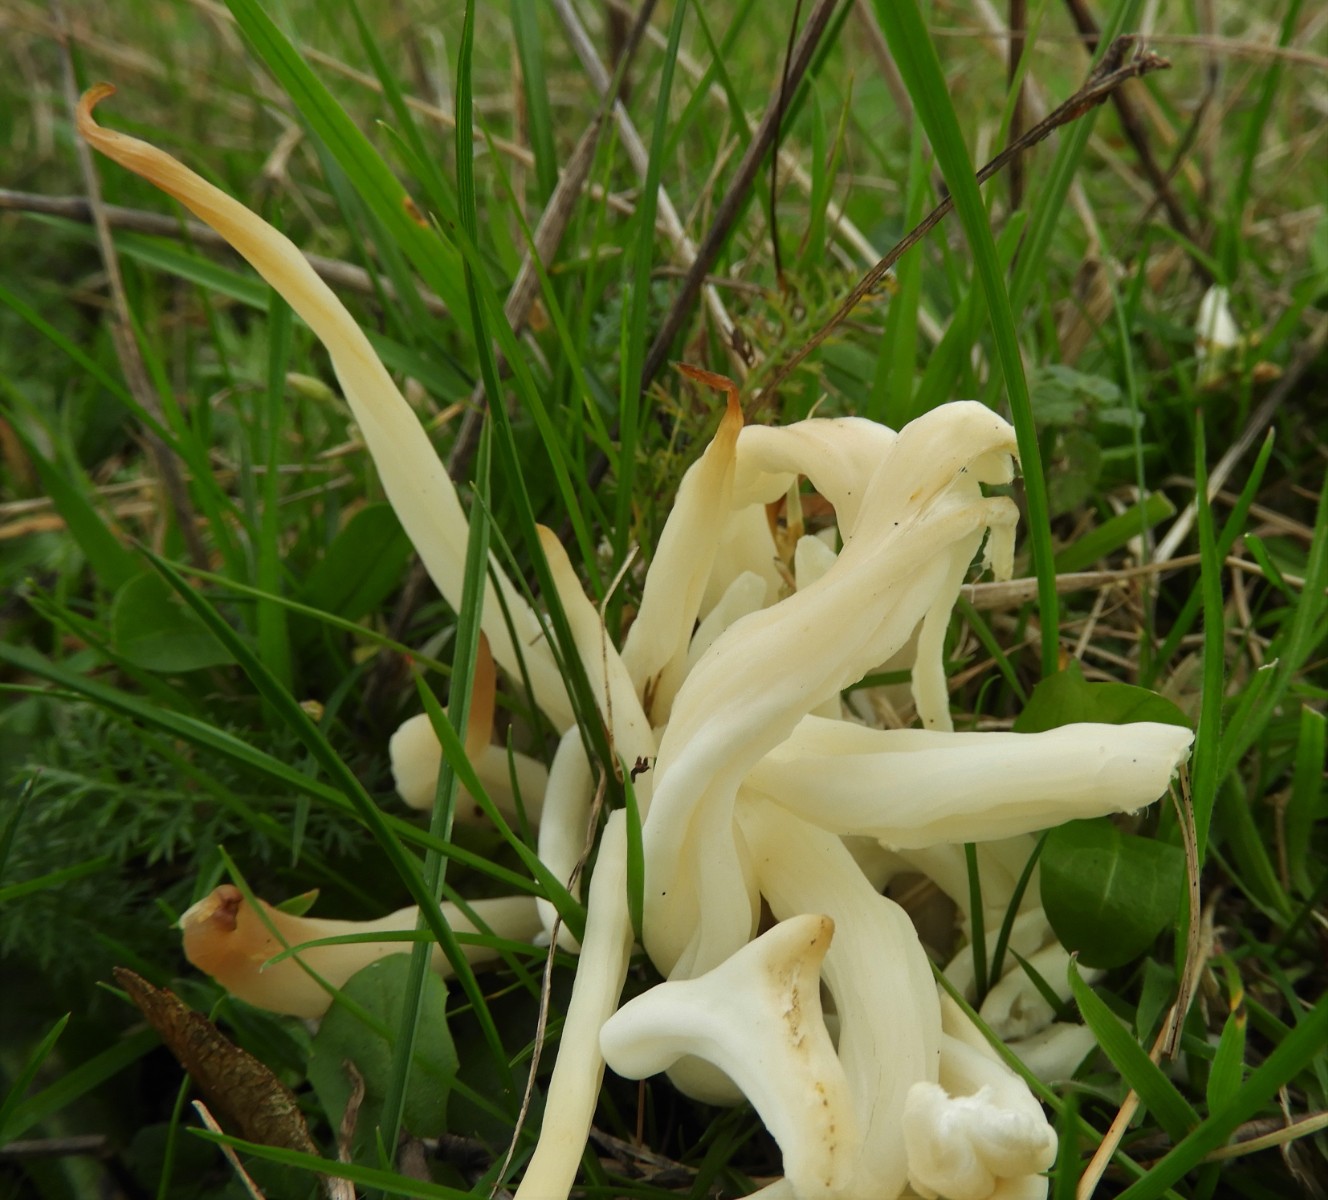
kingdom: Fungi
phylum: Basidiomycota
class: Agaricomycetes
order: Agaricales
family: Clavariaceae
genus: Clavaria
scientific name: Clavaria fragilis
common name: bugtet køllesvamp
